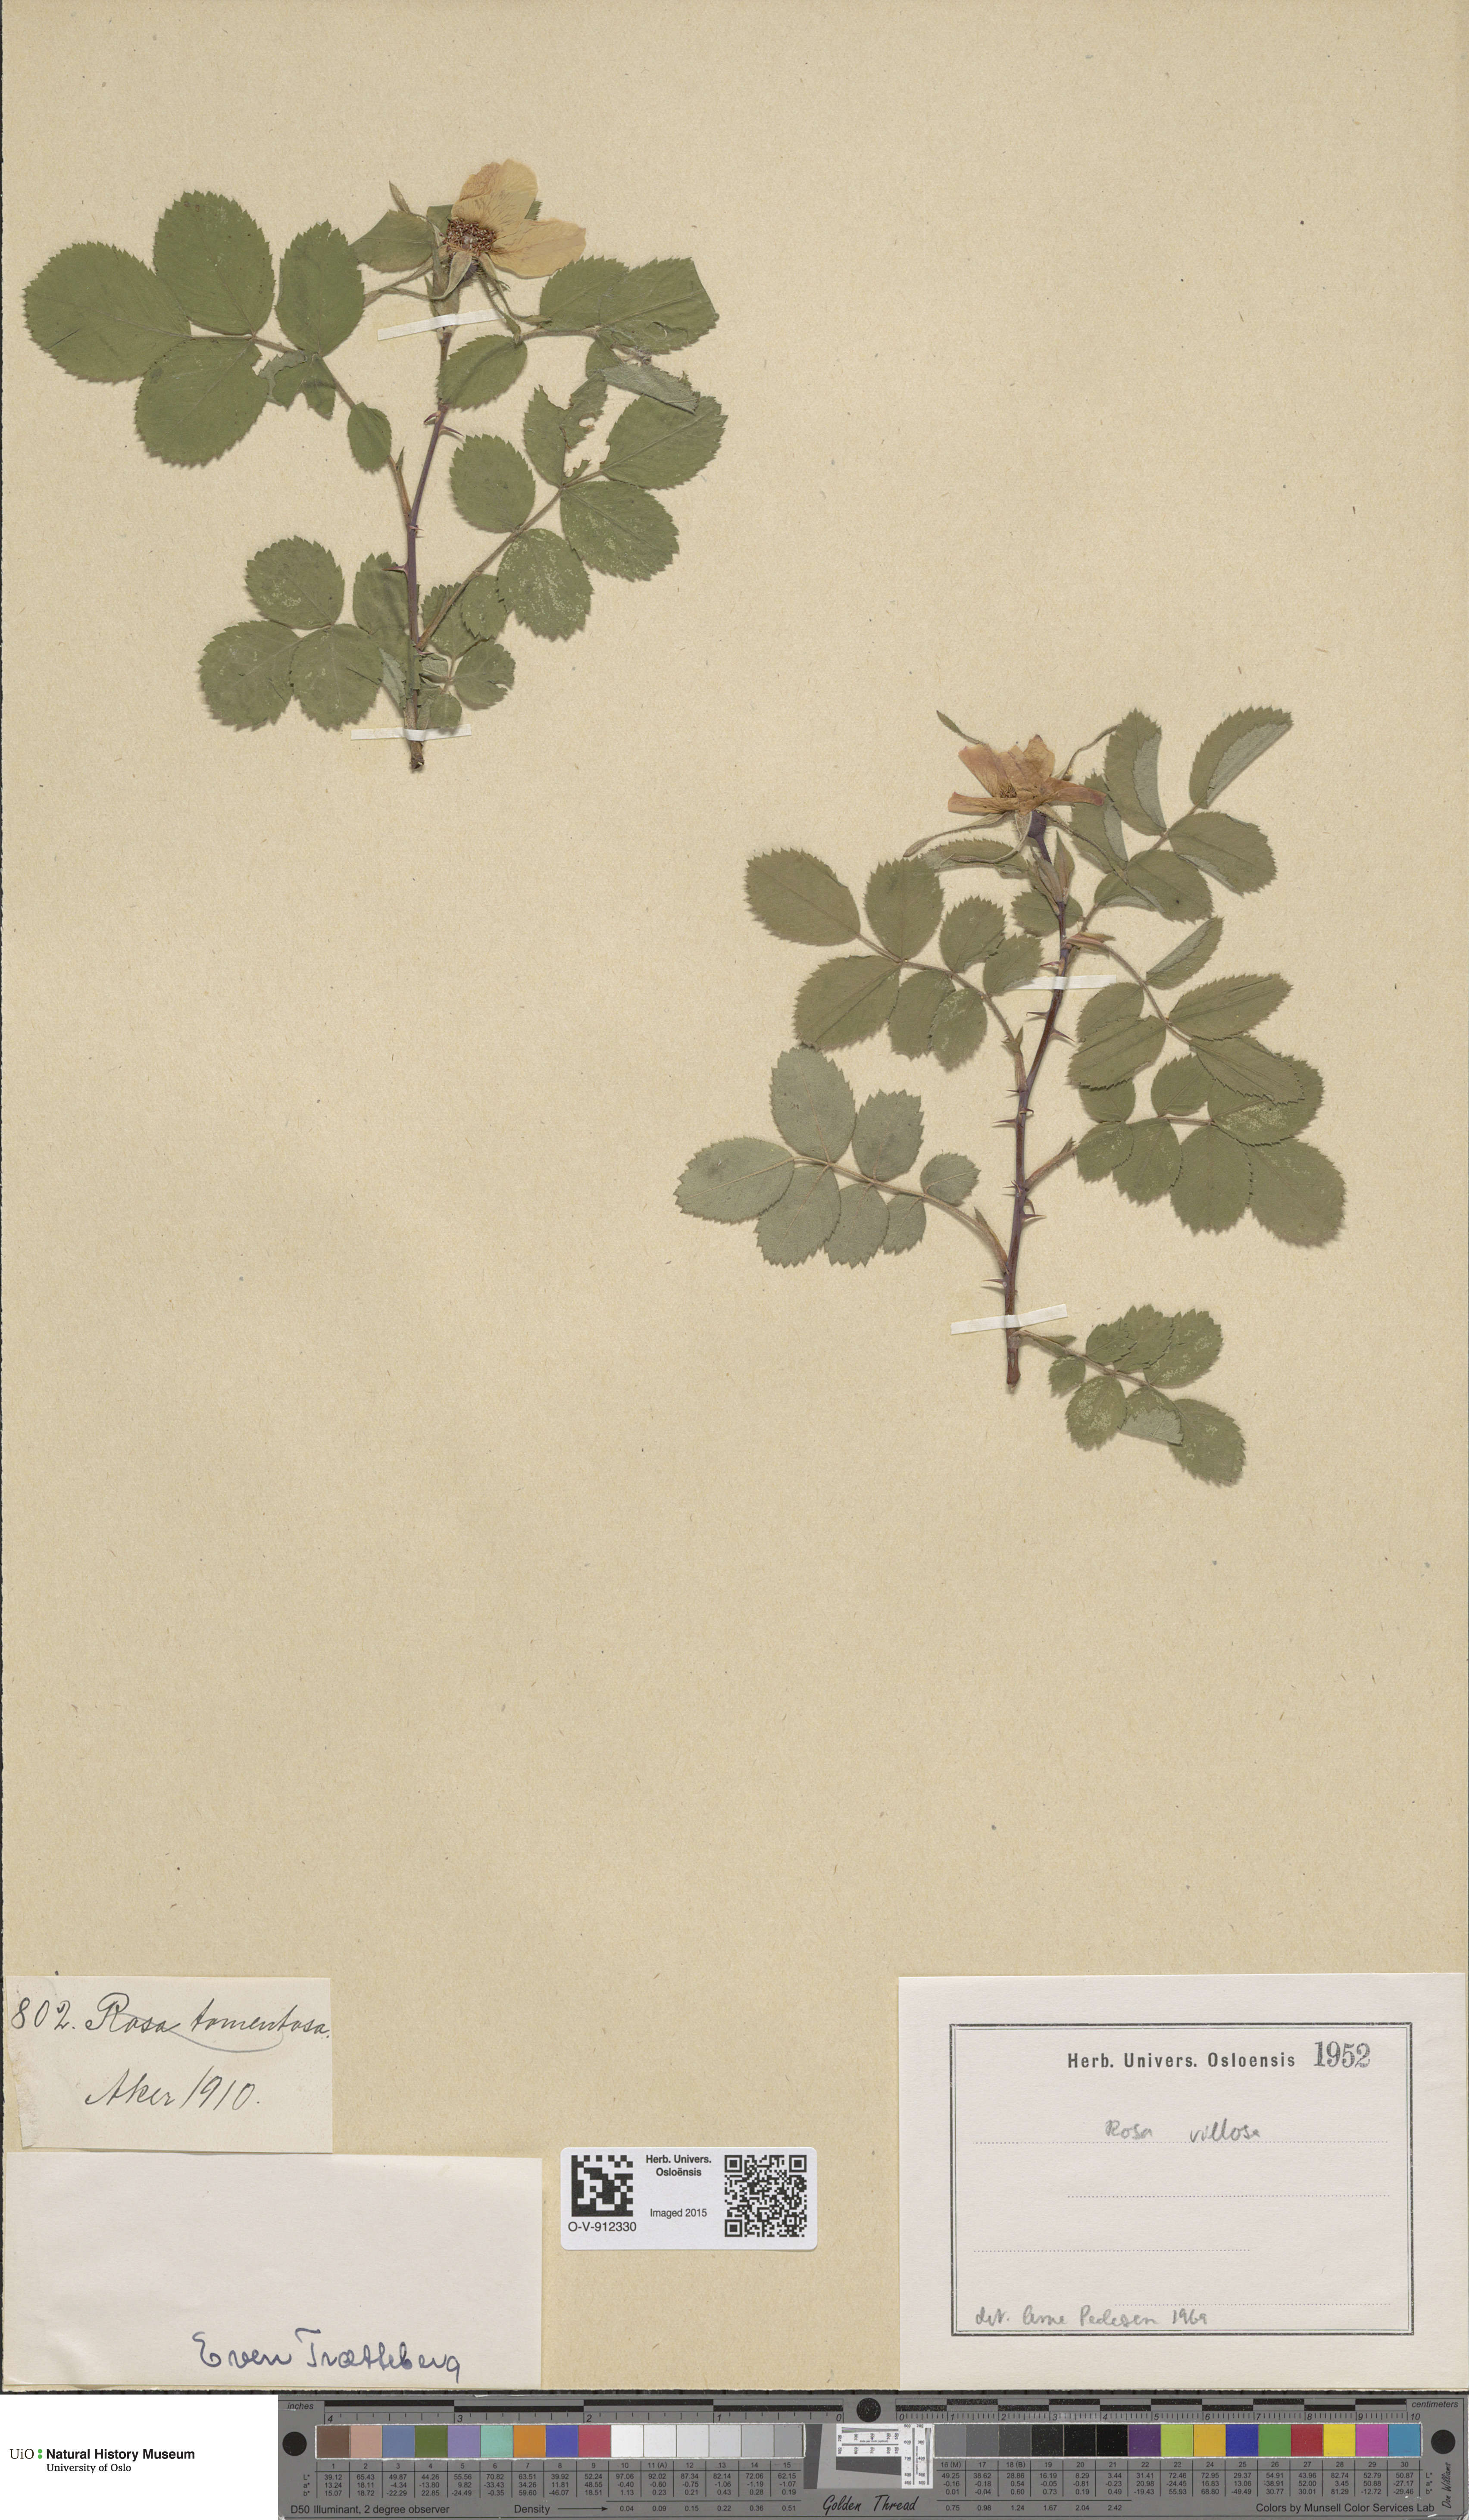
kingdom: Plantae
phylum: Tracheophyta
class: Magnoliopsida
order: Rosales
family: Rosaceae
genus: Rosa
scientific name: Rosa villosa
